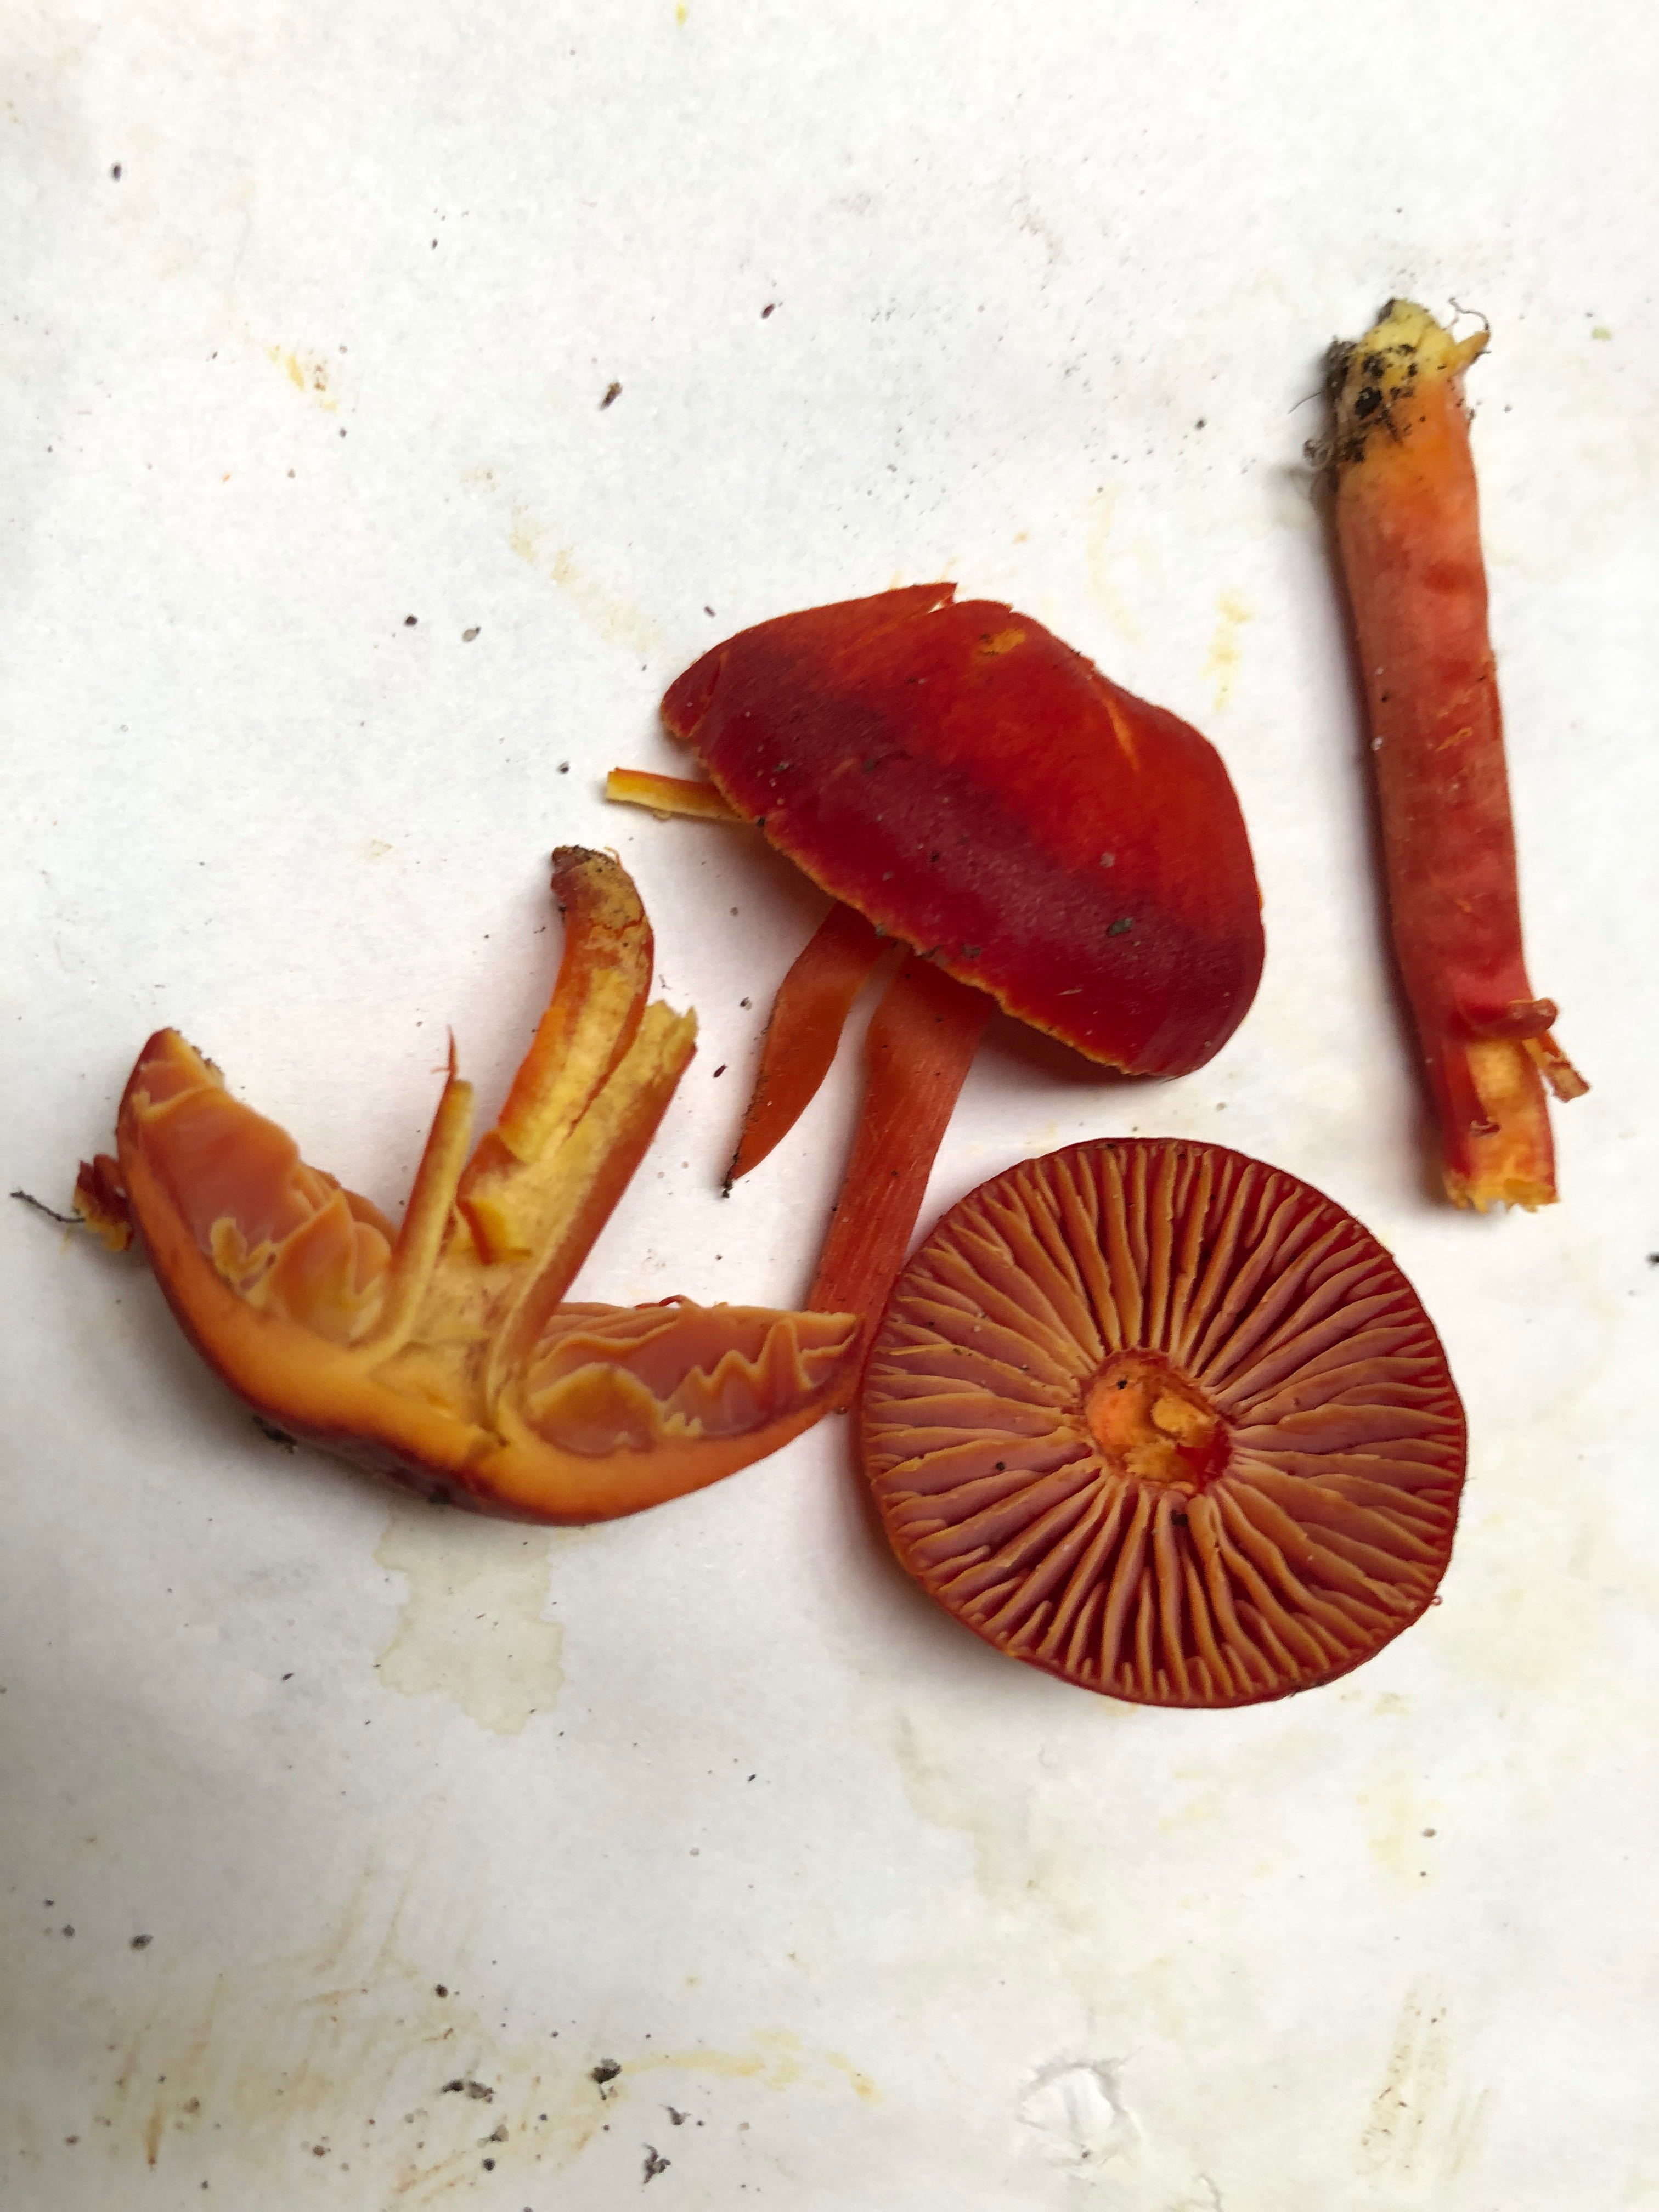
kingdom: Fungi
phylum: Basidiomycota
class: Agaricomycetes
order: Agaricales
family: Hygrophoraceae
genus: Hygrocybe
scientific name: Hygrocybe coccinea
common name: cinnober-vokshat
